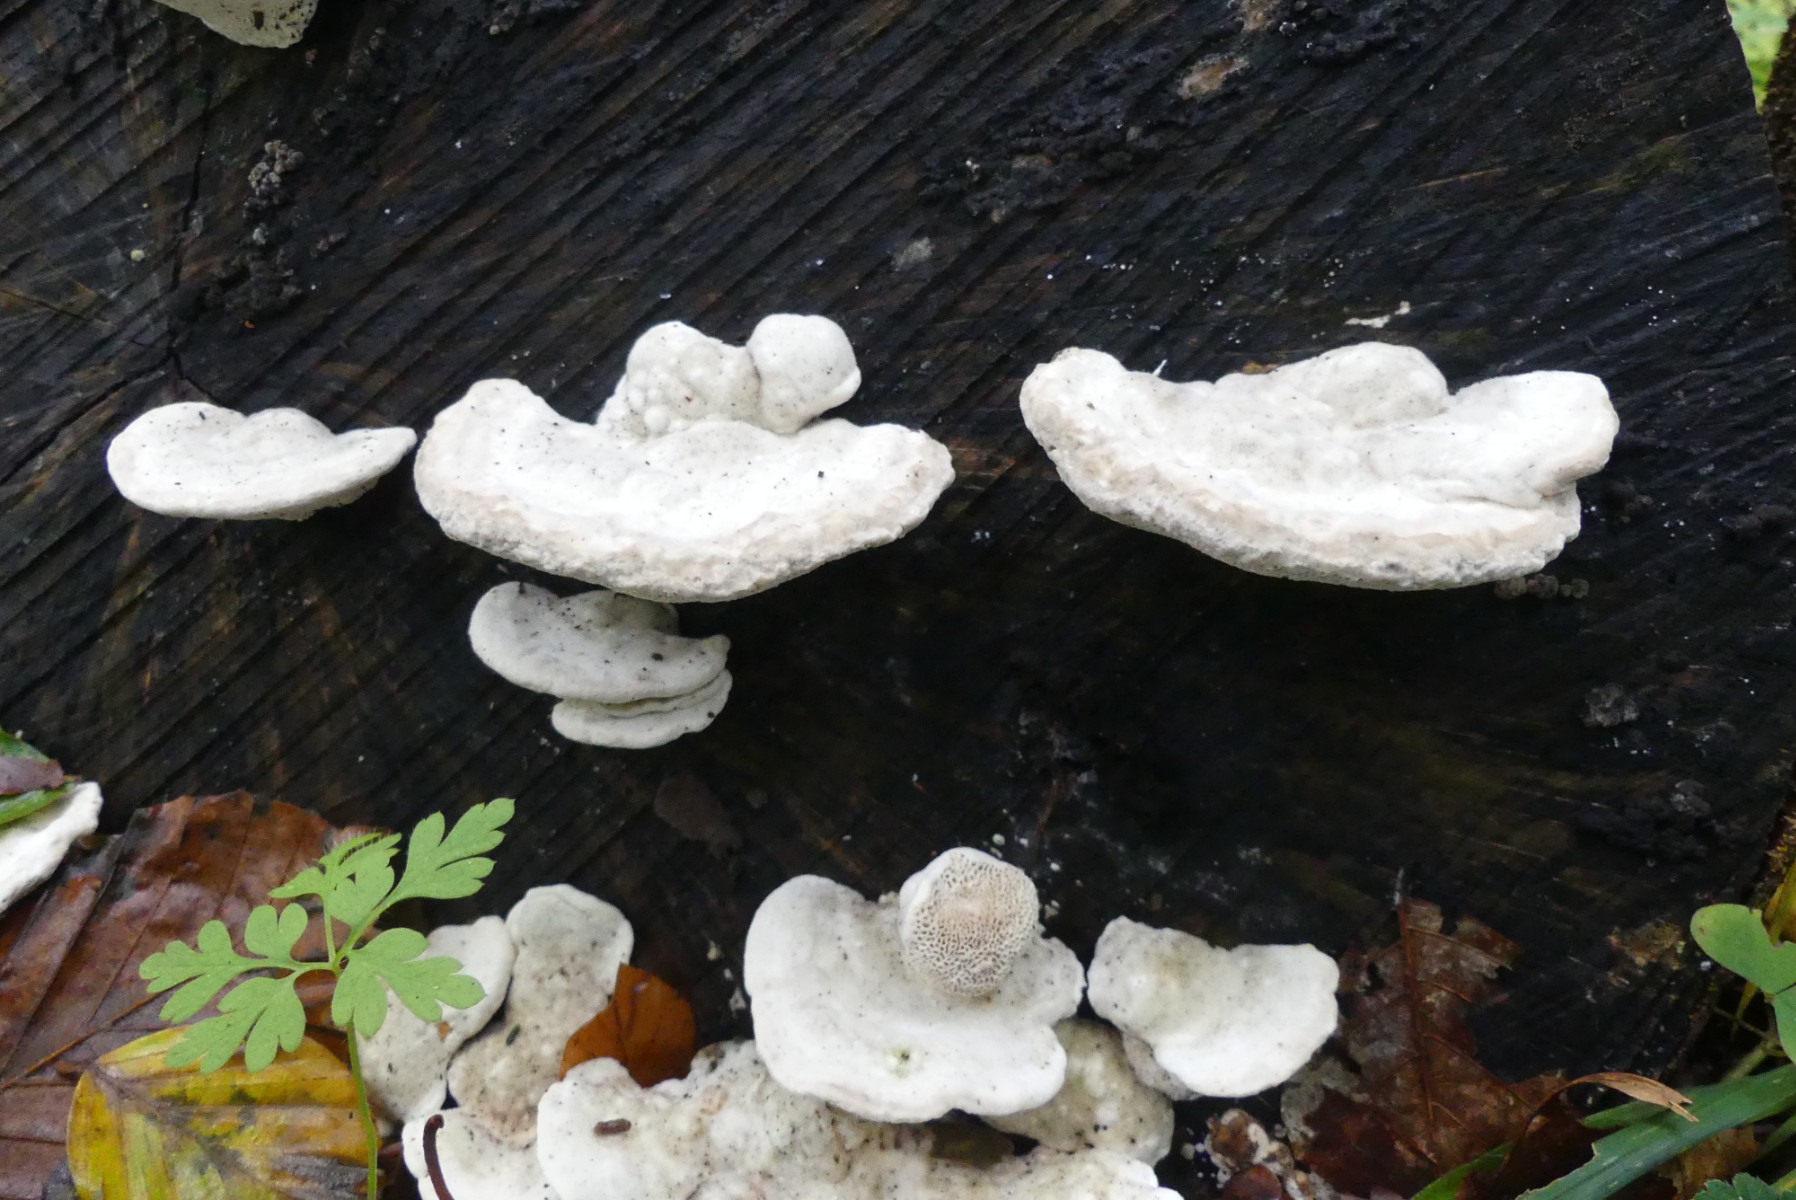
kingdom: Fungi
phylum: Basidiomycota
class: Agaricomycetes
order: Polyporales
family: Polyporaceae
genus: Trametes
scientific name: Trametes gibbosa
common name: puklet læderporesvamp
